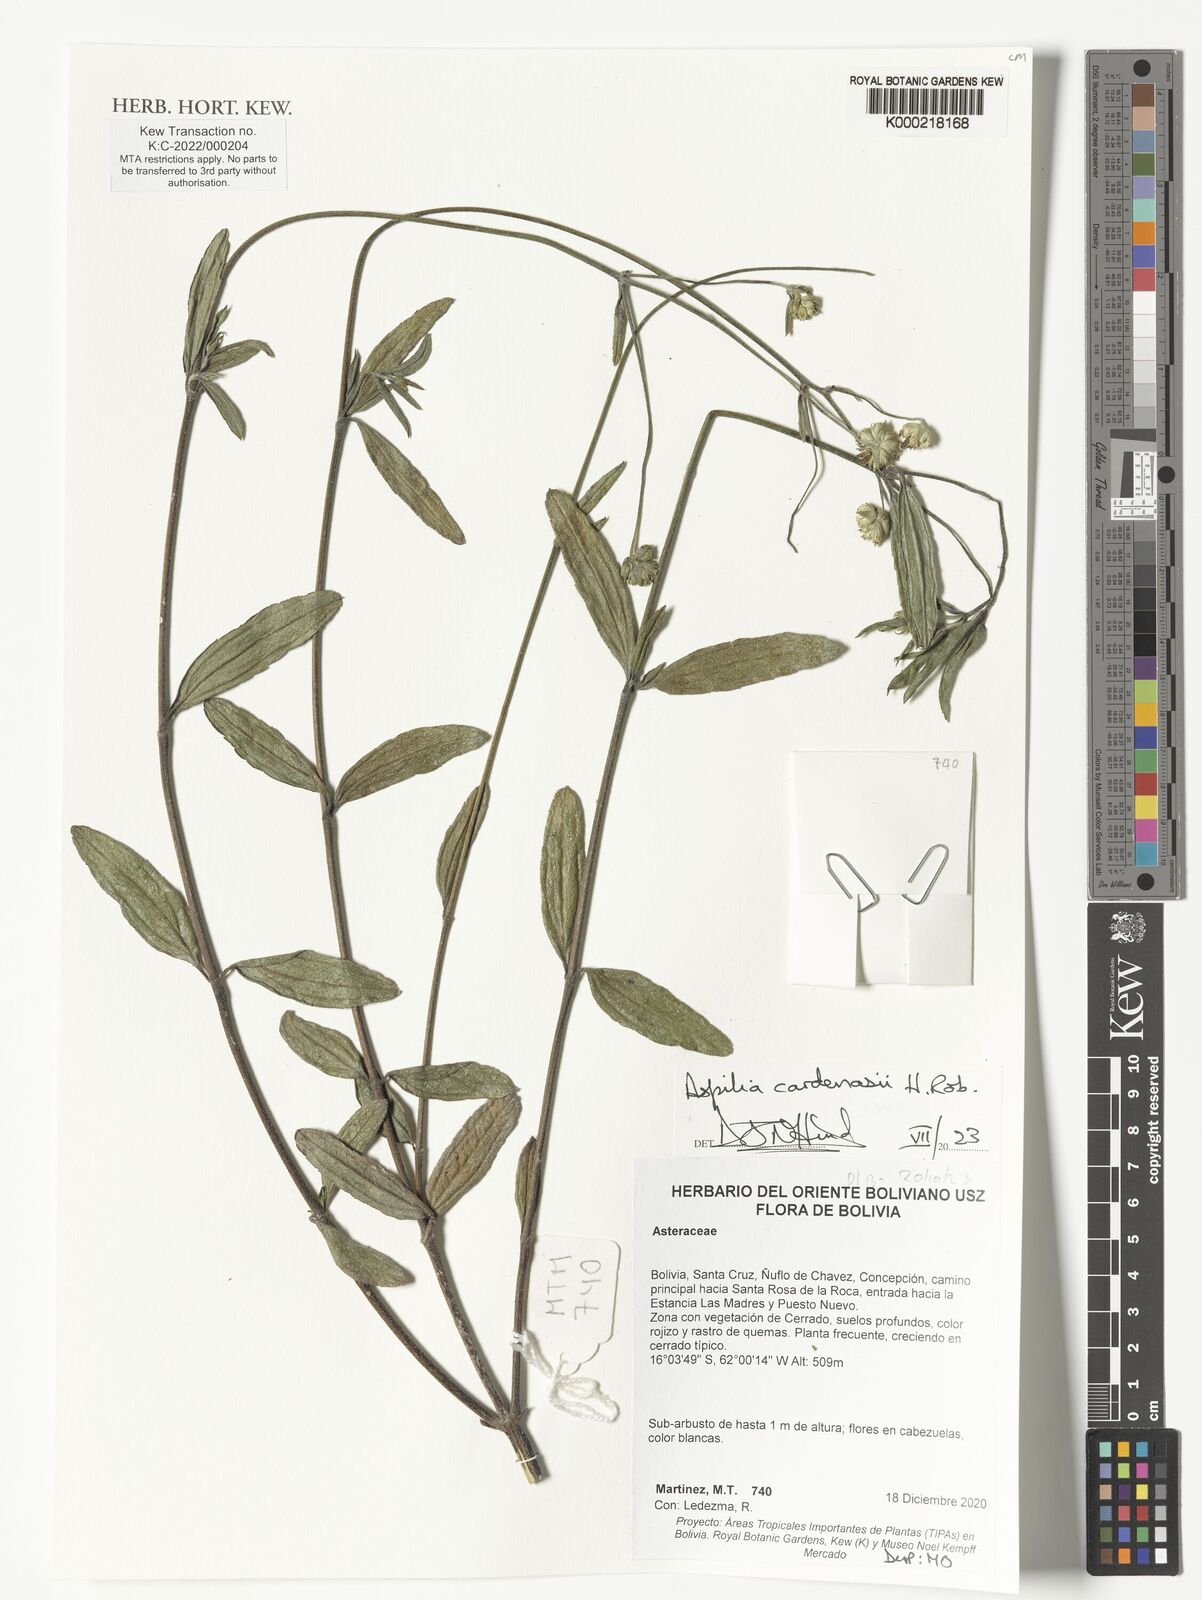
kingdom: Plantae
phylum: Tracheophyta
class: Magnoliopsida
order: Asterales
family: Asteraceae
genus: Wedelia
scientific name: Wedelia cardenasii
